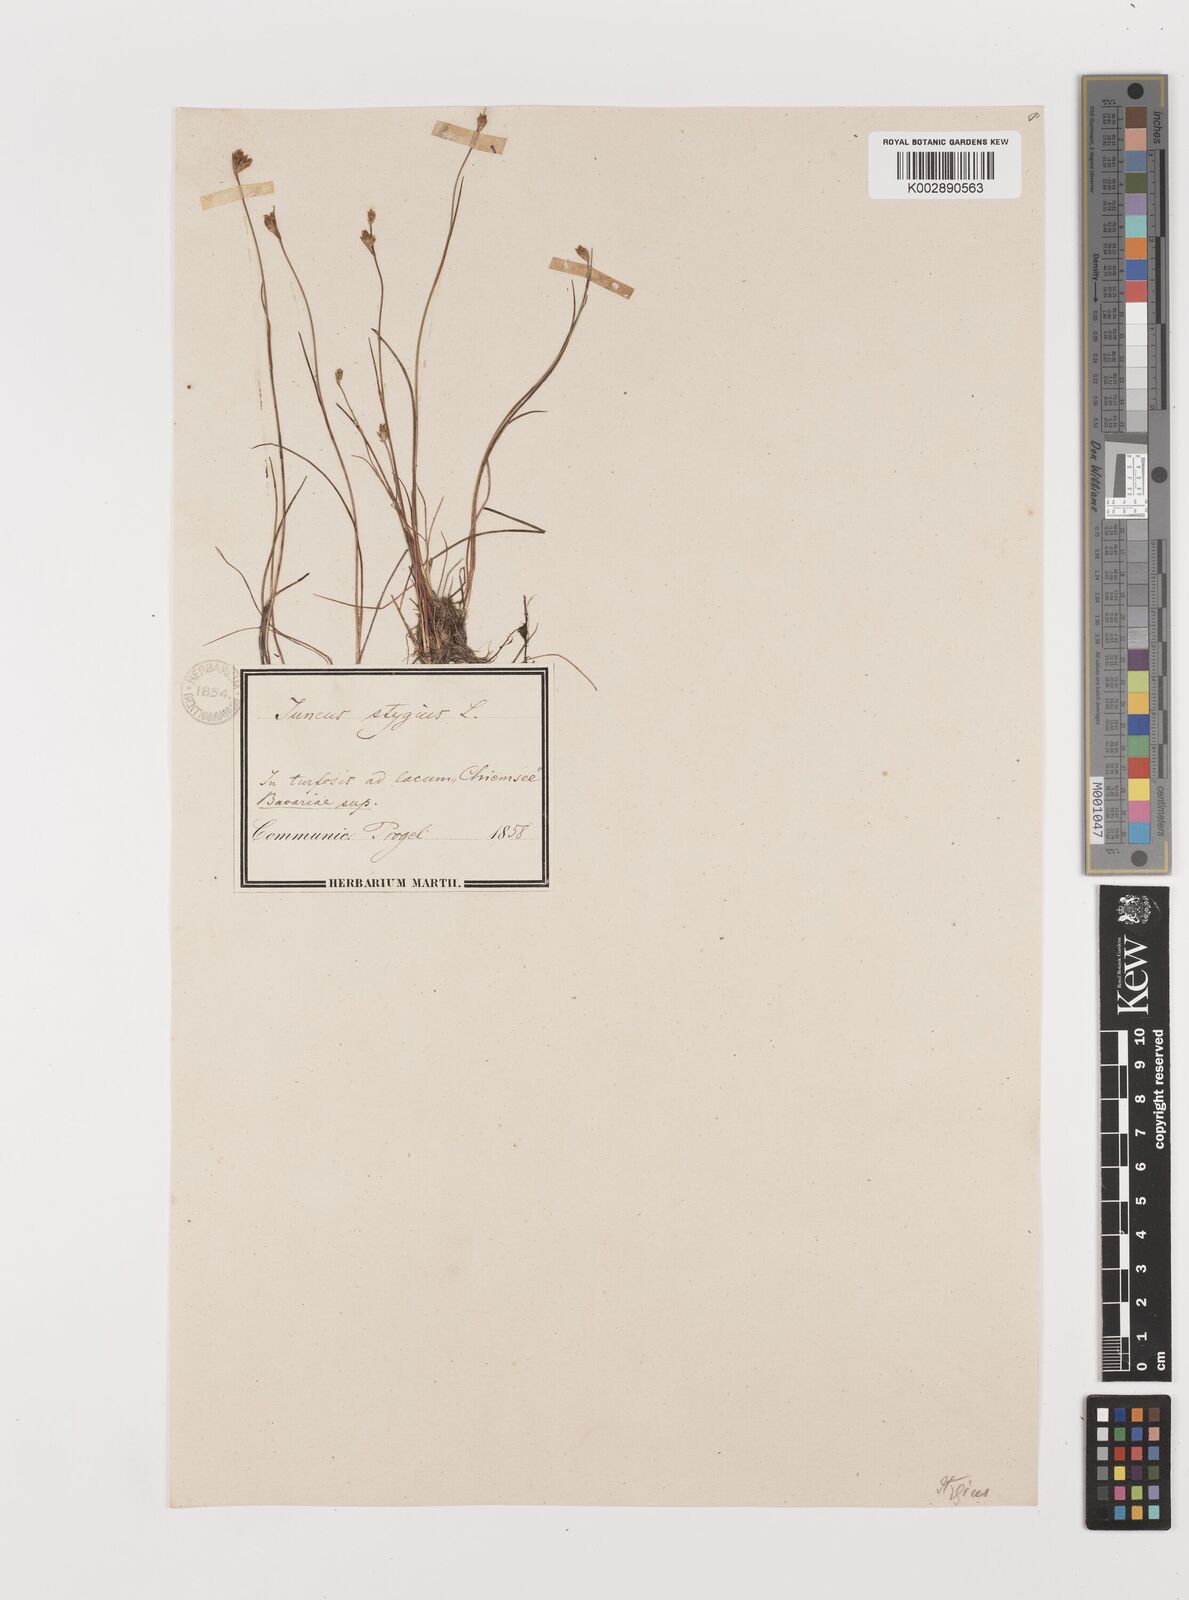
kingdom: Plantae
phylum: Tracheophyta
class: Liliopsida
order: Poales
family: Juncaceae
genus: Juncus
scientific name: Juncus stygius
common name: Bog rush
